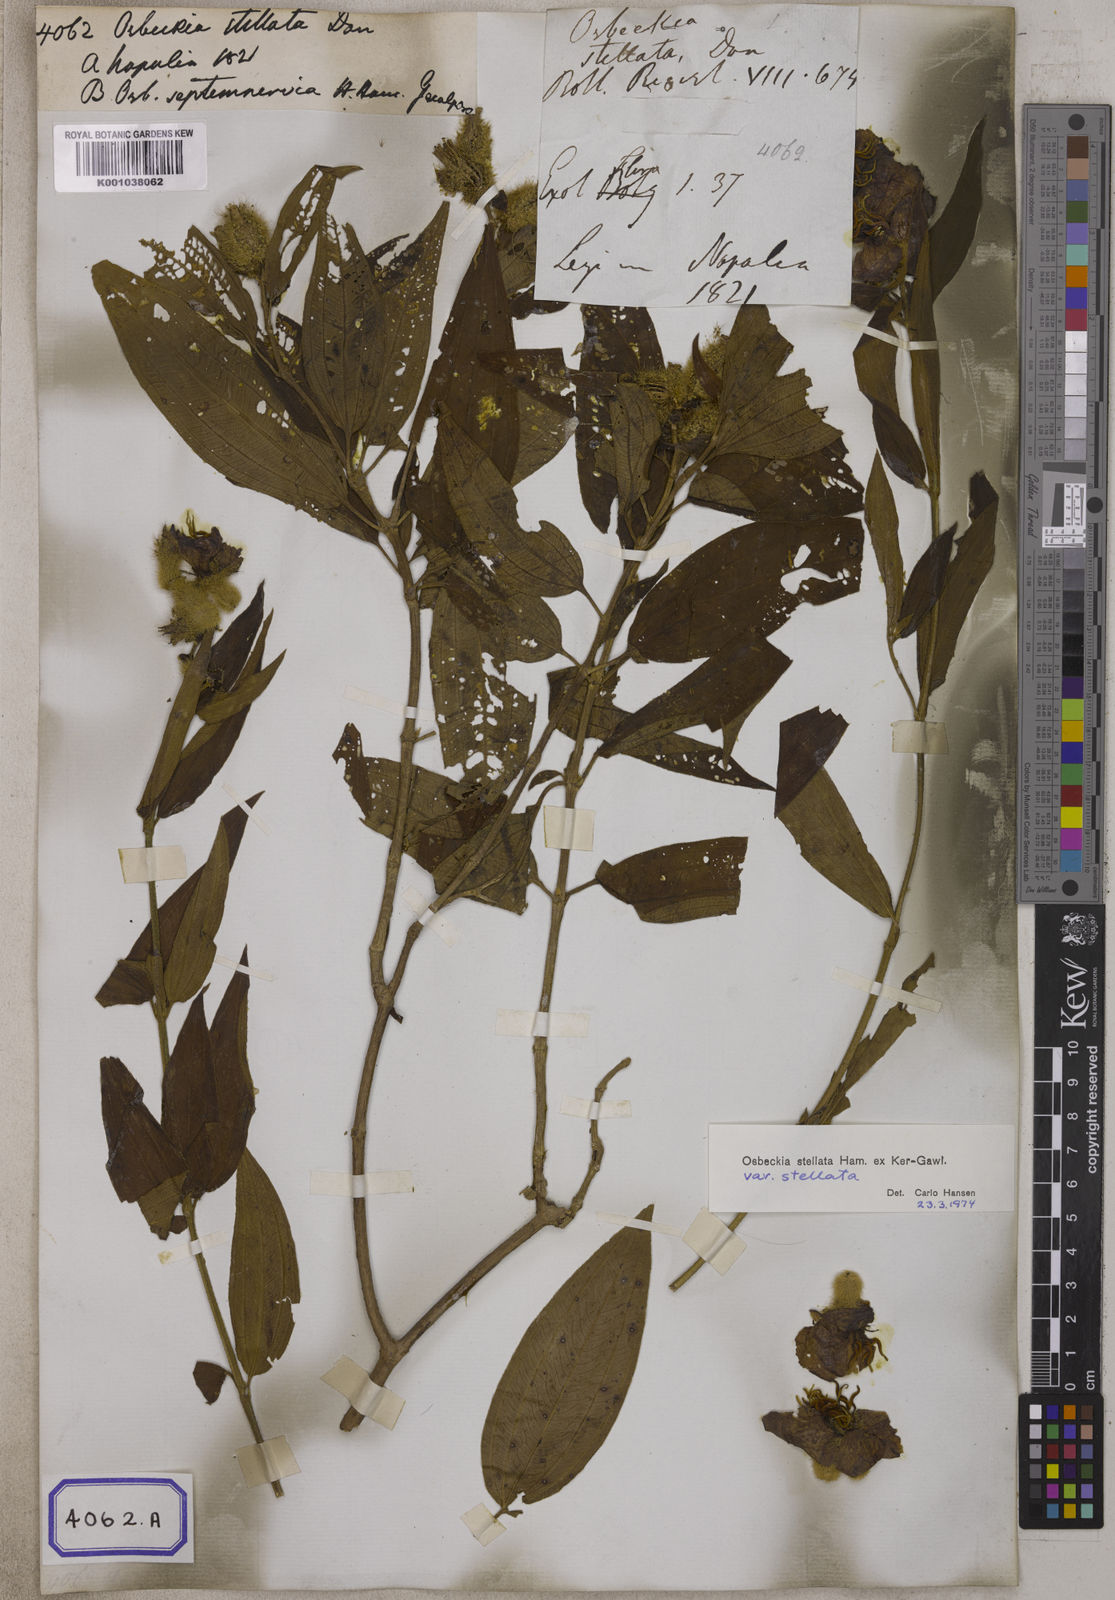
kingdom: Plantae
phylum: Tracheophyta
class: Magnoliopsida
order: Myrtales
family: Melastomataceae
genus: Osbeckia
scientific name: Osbeckia stellata
